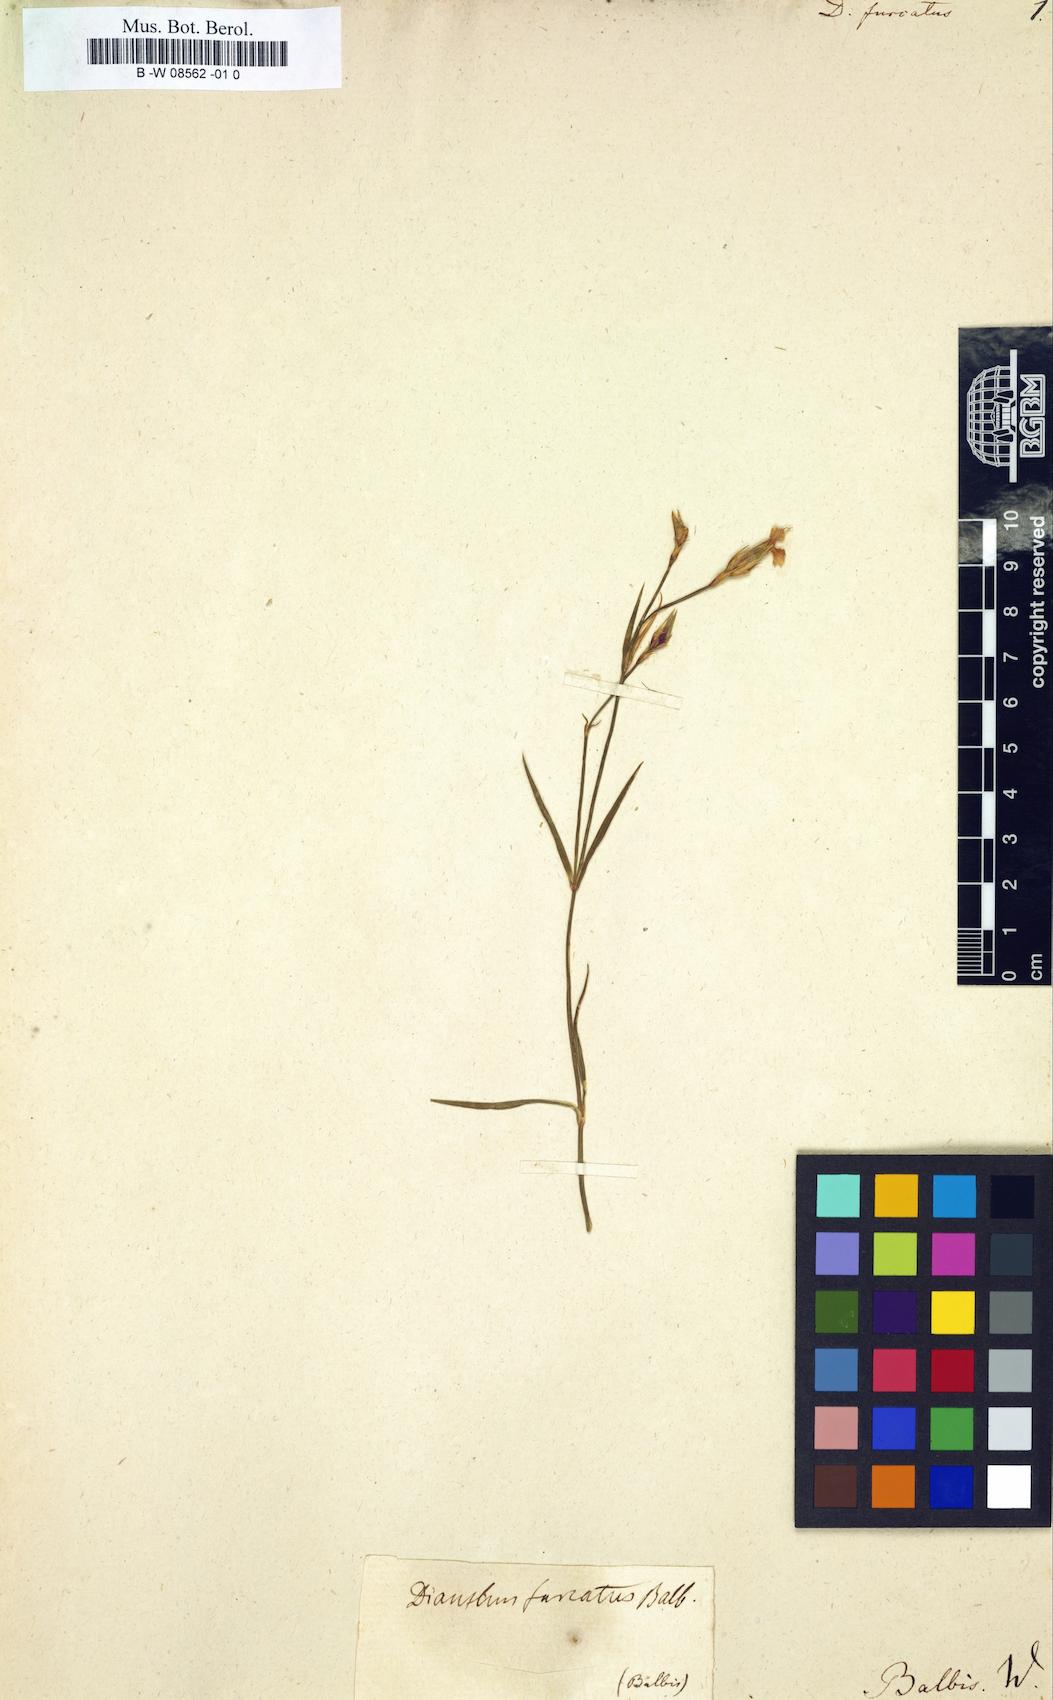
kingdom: Plantae
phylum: Tracheophyta
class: Magnoliopsida
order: Caryophyllales
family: Caryophyllaceae
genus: Dianthus
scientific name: Dianthus furcatus
